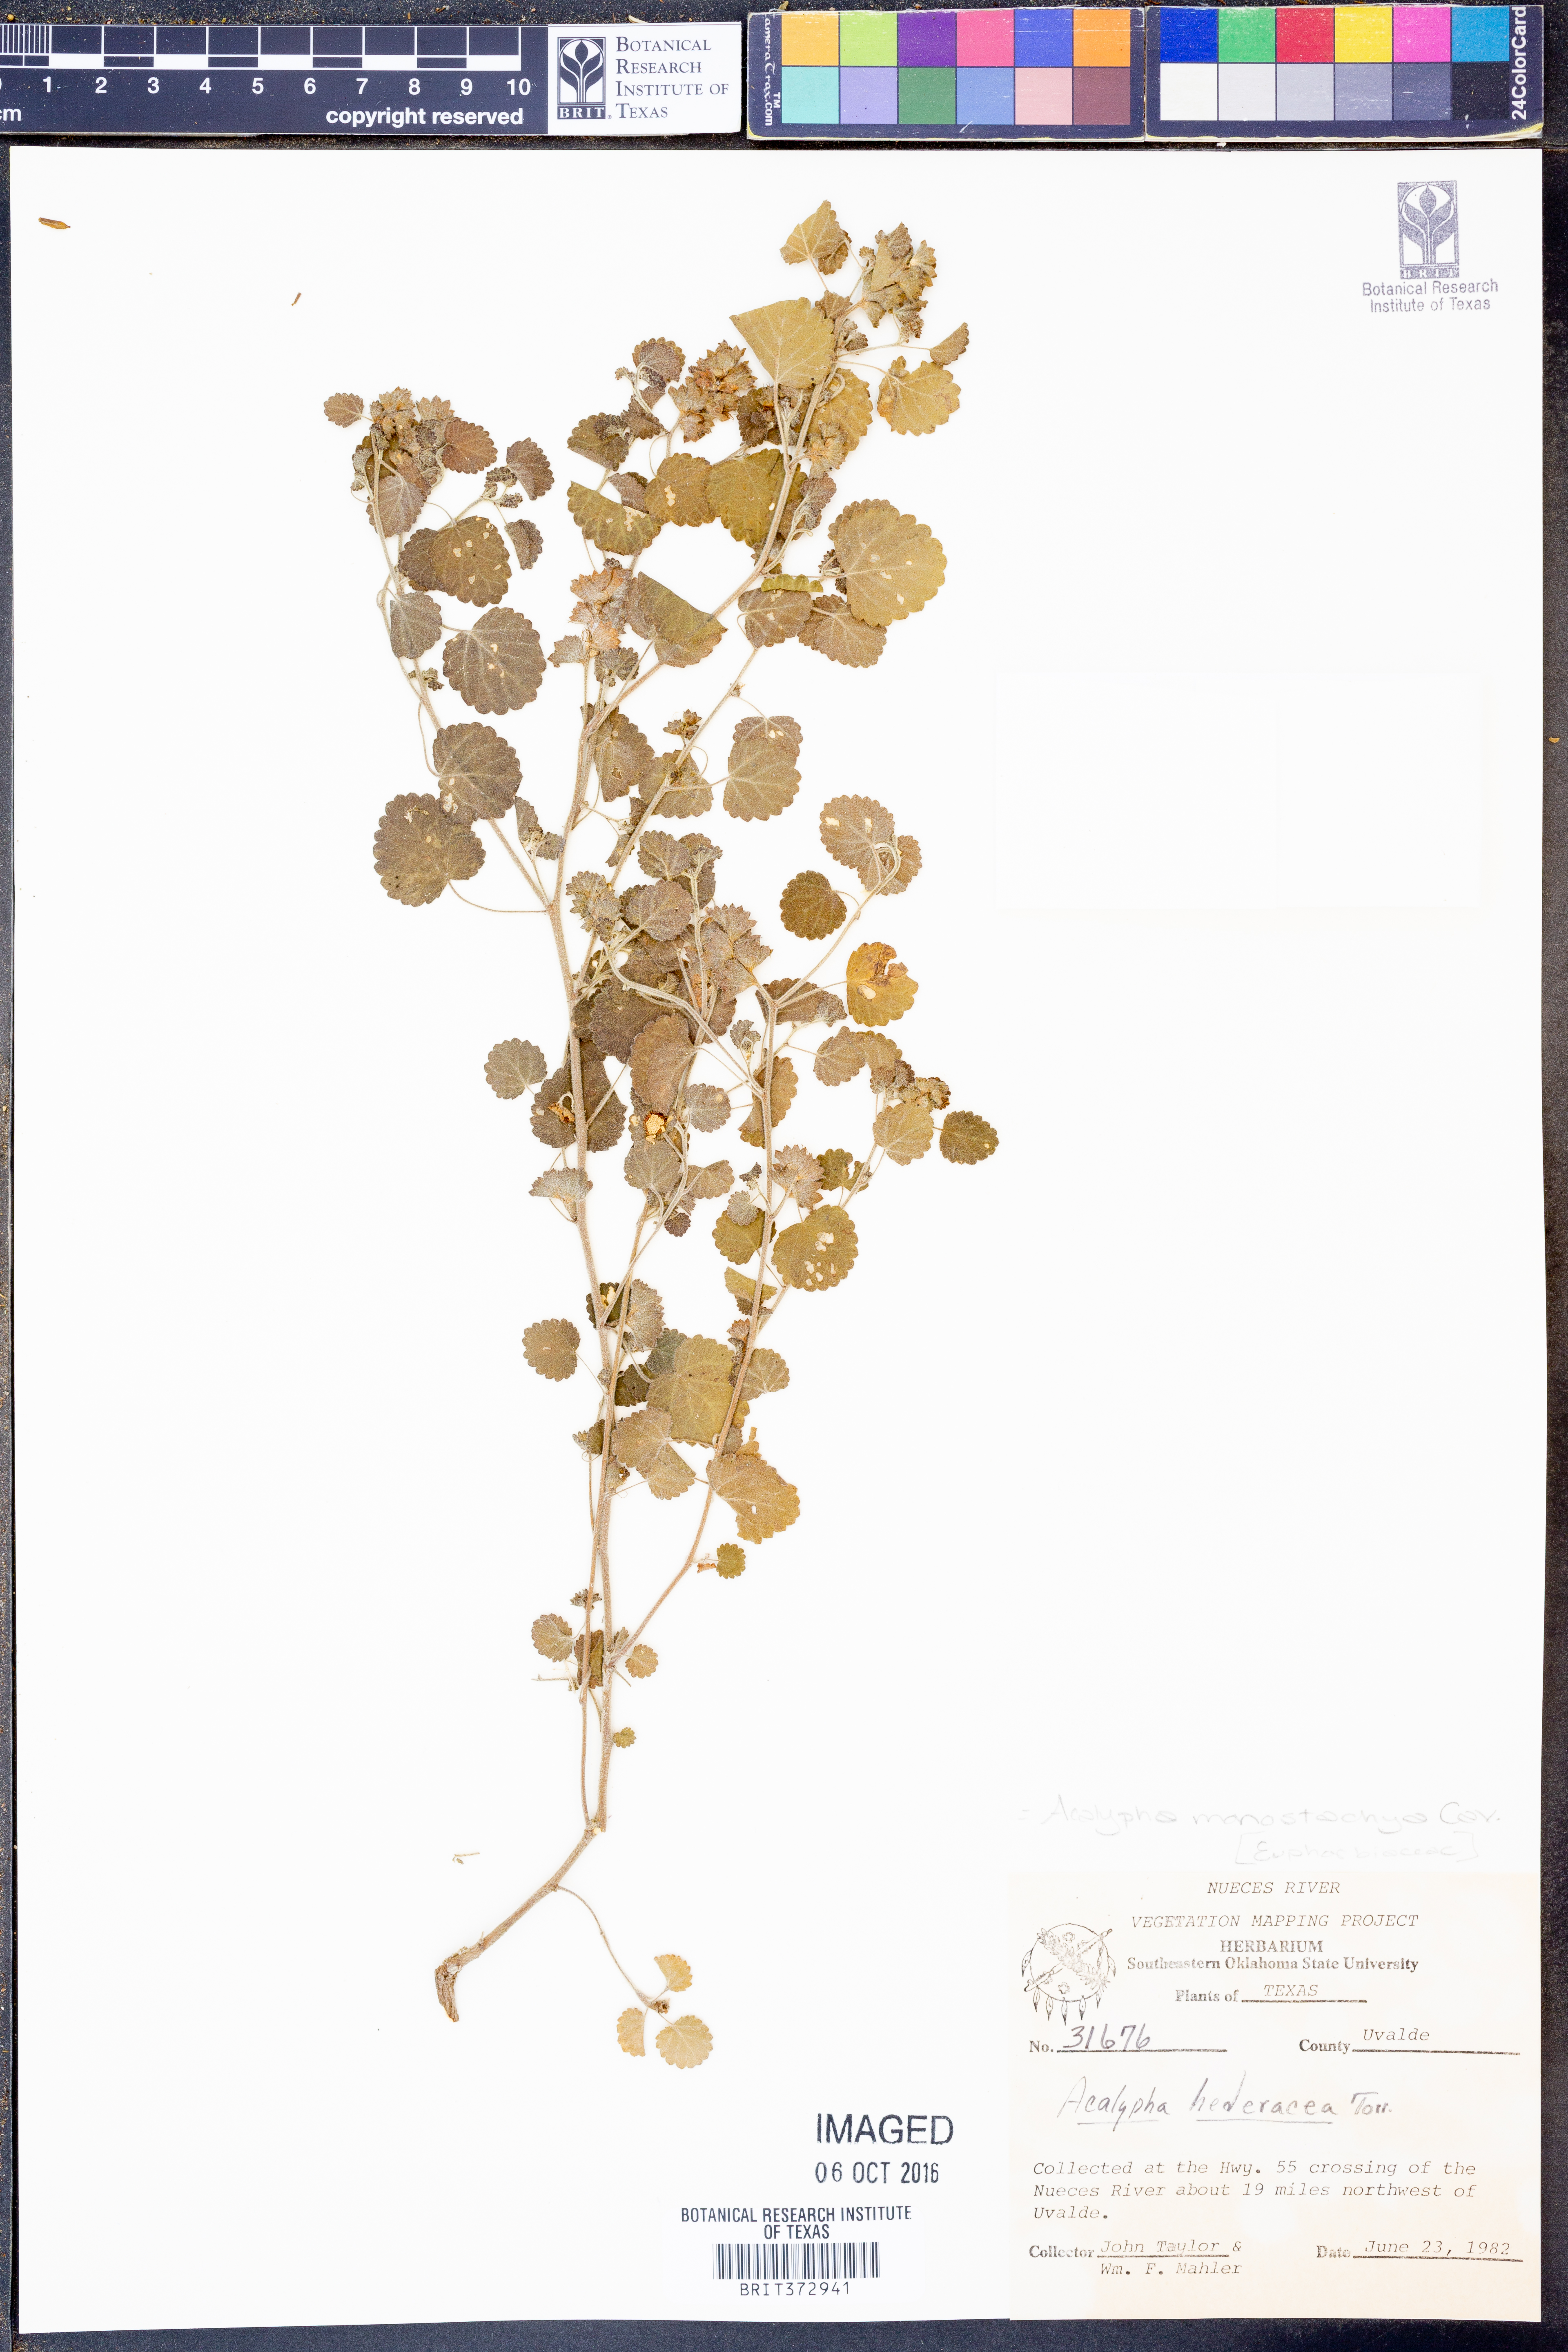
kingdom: Plantae
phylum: Tracheophyta
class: Magnoliopsida
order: Malpighiales
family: Euphorbiaceae
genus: Acalypha
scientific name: Acalypha monostachya
